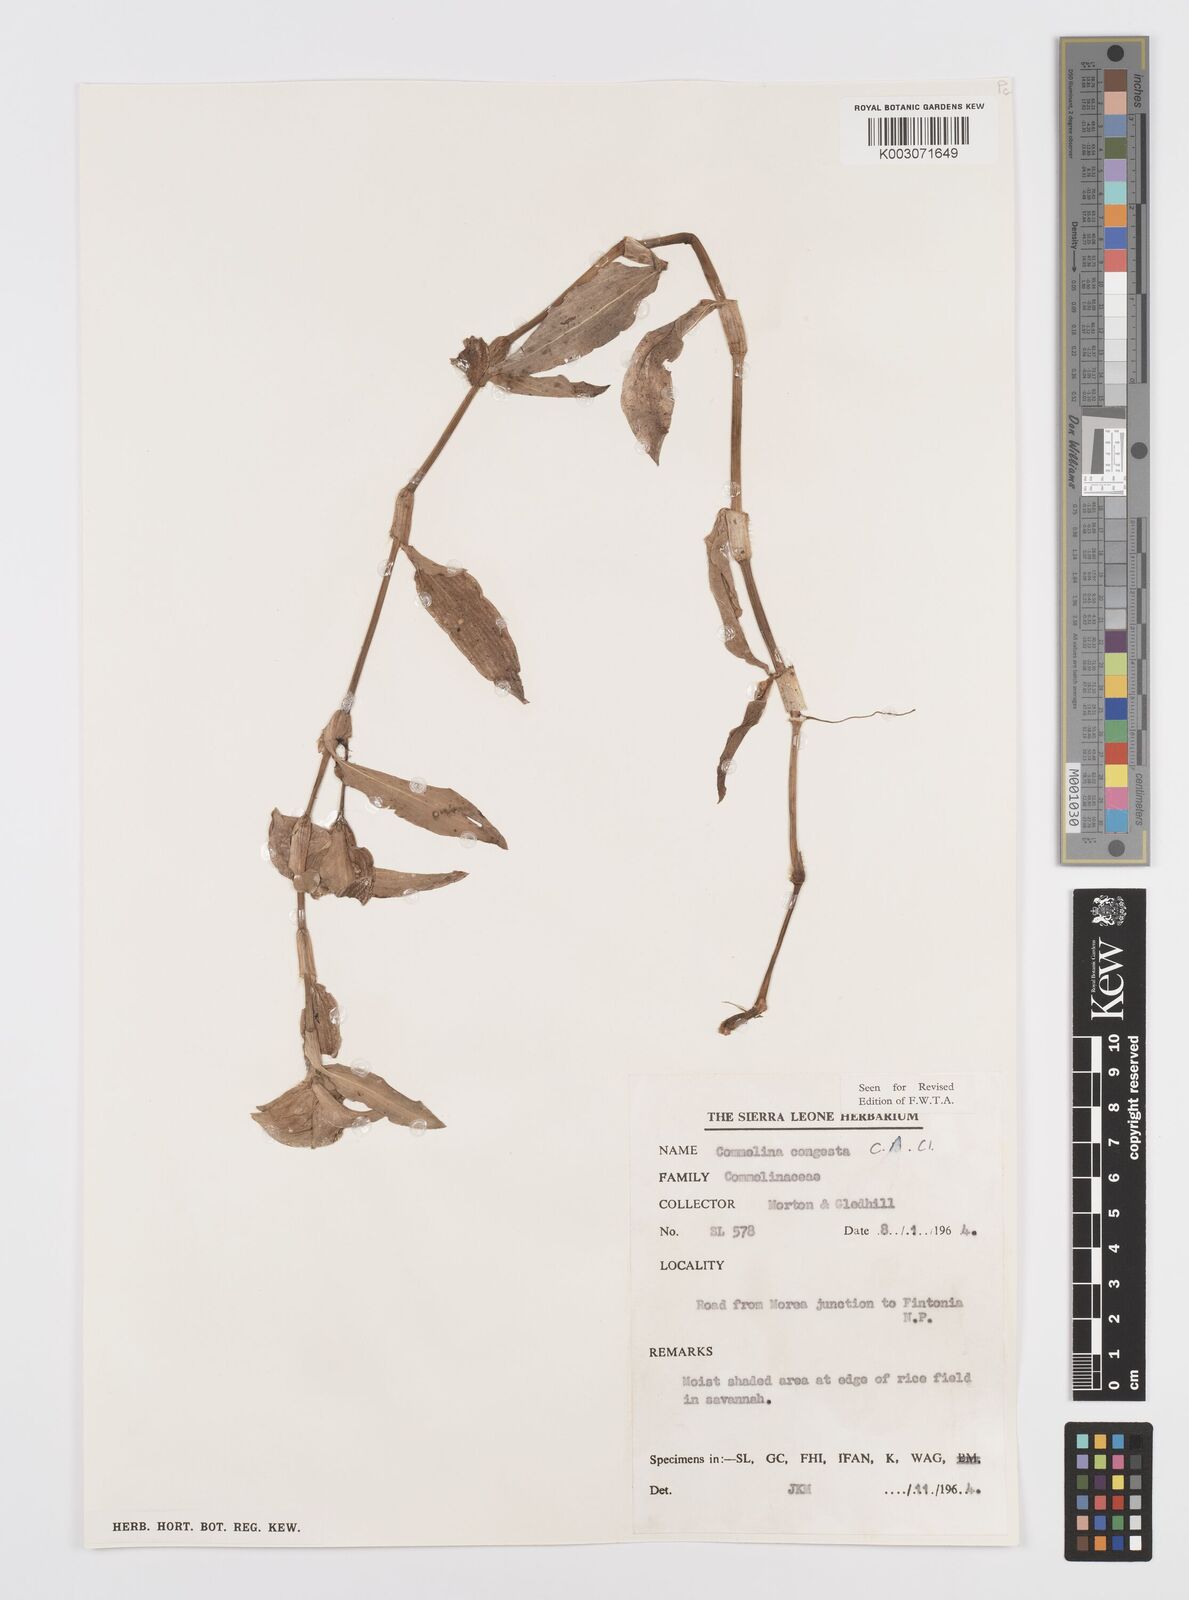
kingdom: Plantae
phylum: Tracheophyta
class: Liliopsida
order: Commelinales
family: Commelinaceae
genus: Commelina
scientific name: Commelina congesta
